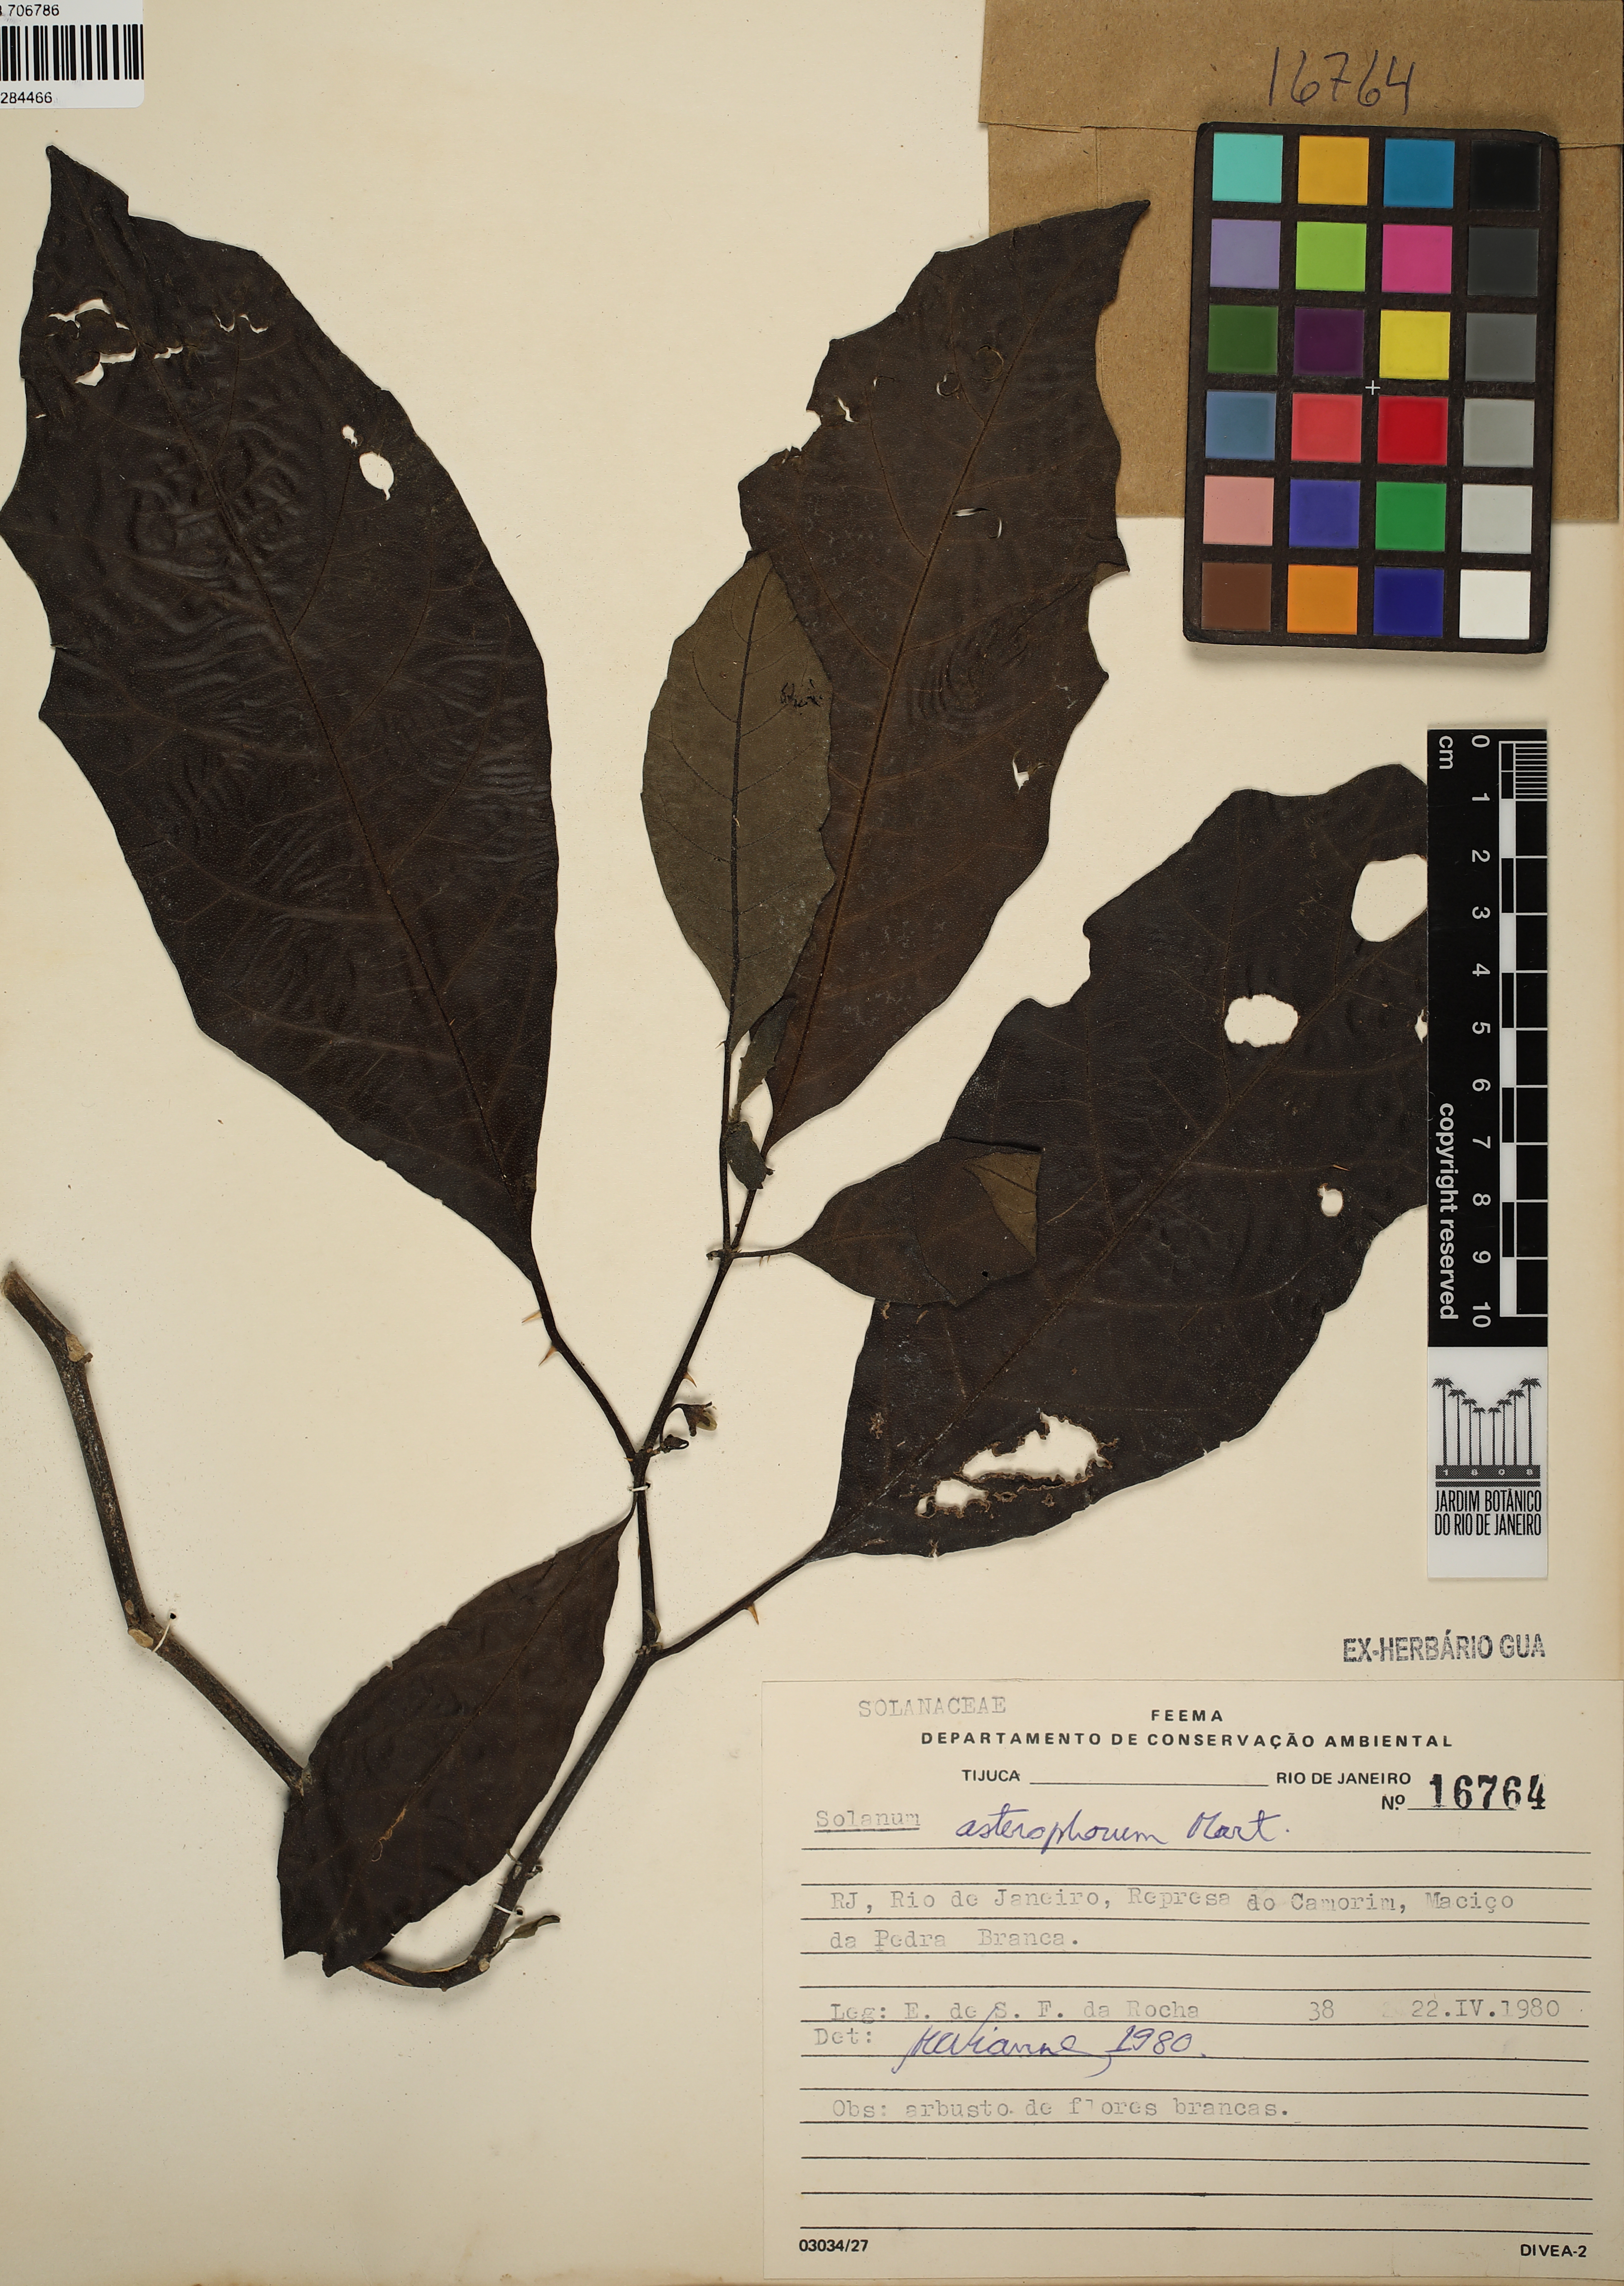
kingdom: Plantae
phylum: Tracheophyta
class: Magnoliopsida
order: Solanales
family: Solanaceae
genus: Solanum
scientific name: Solanum asterophorum
